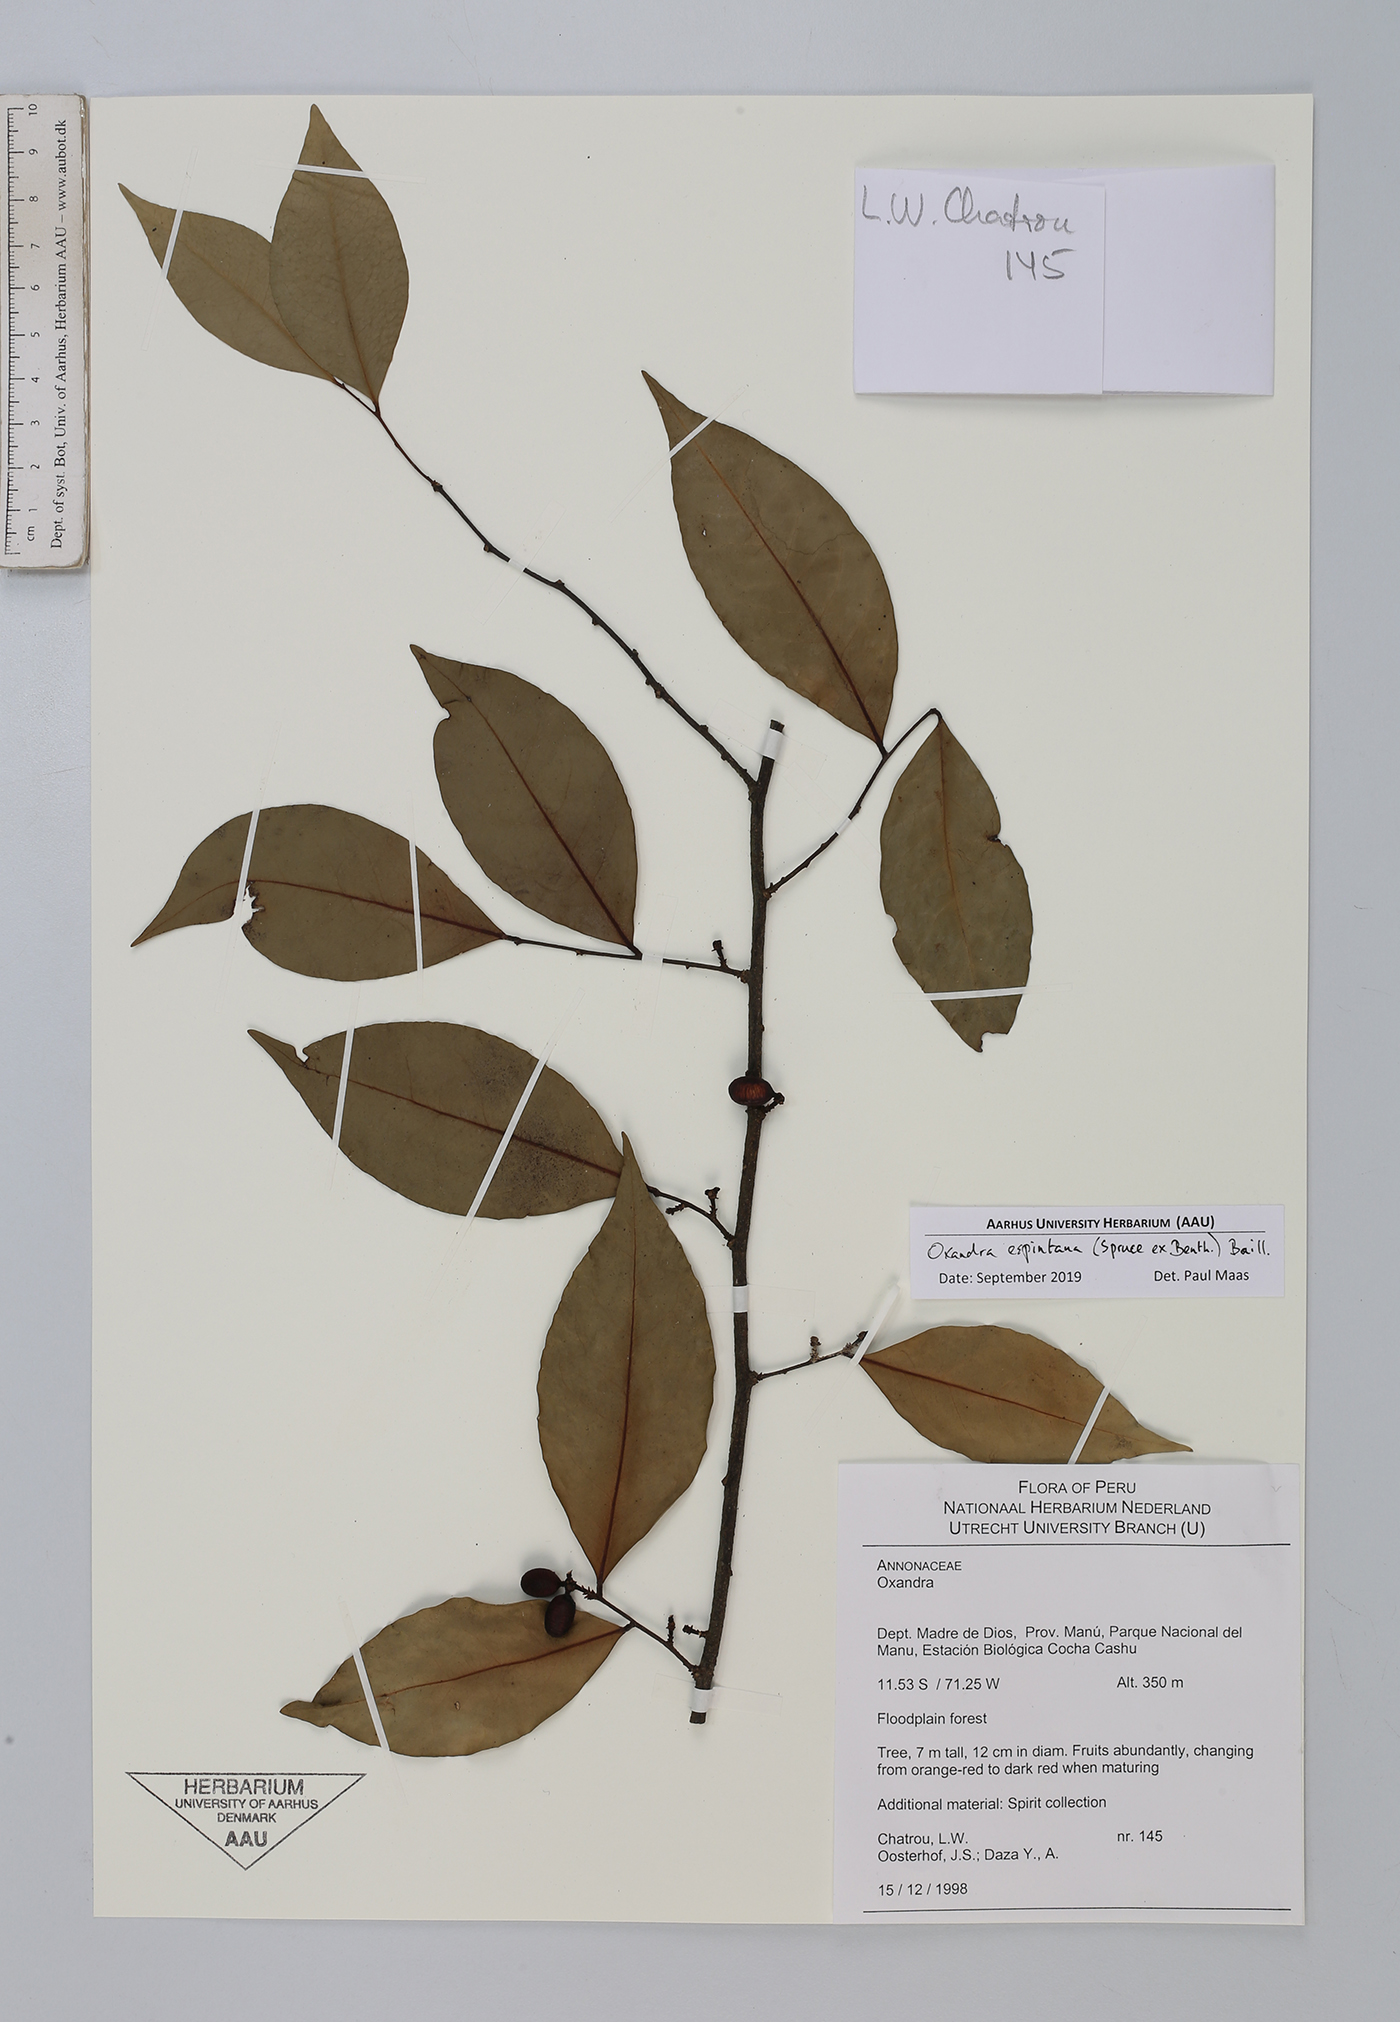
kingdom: Plantae
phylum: Tracheophyta
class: Magnoliopsida
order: Magnoliales
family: Annonaceae
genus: Oxandra
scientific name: Oxandra espintana
